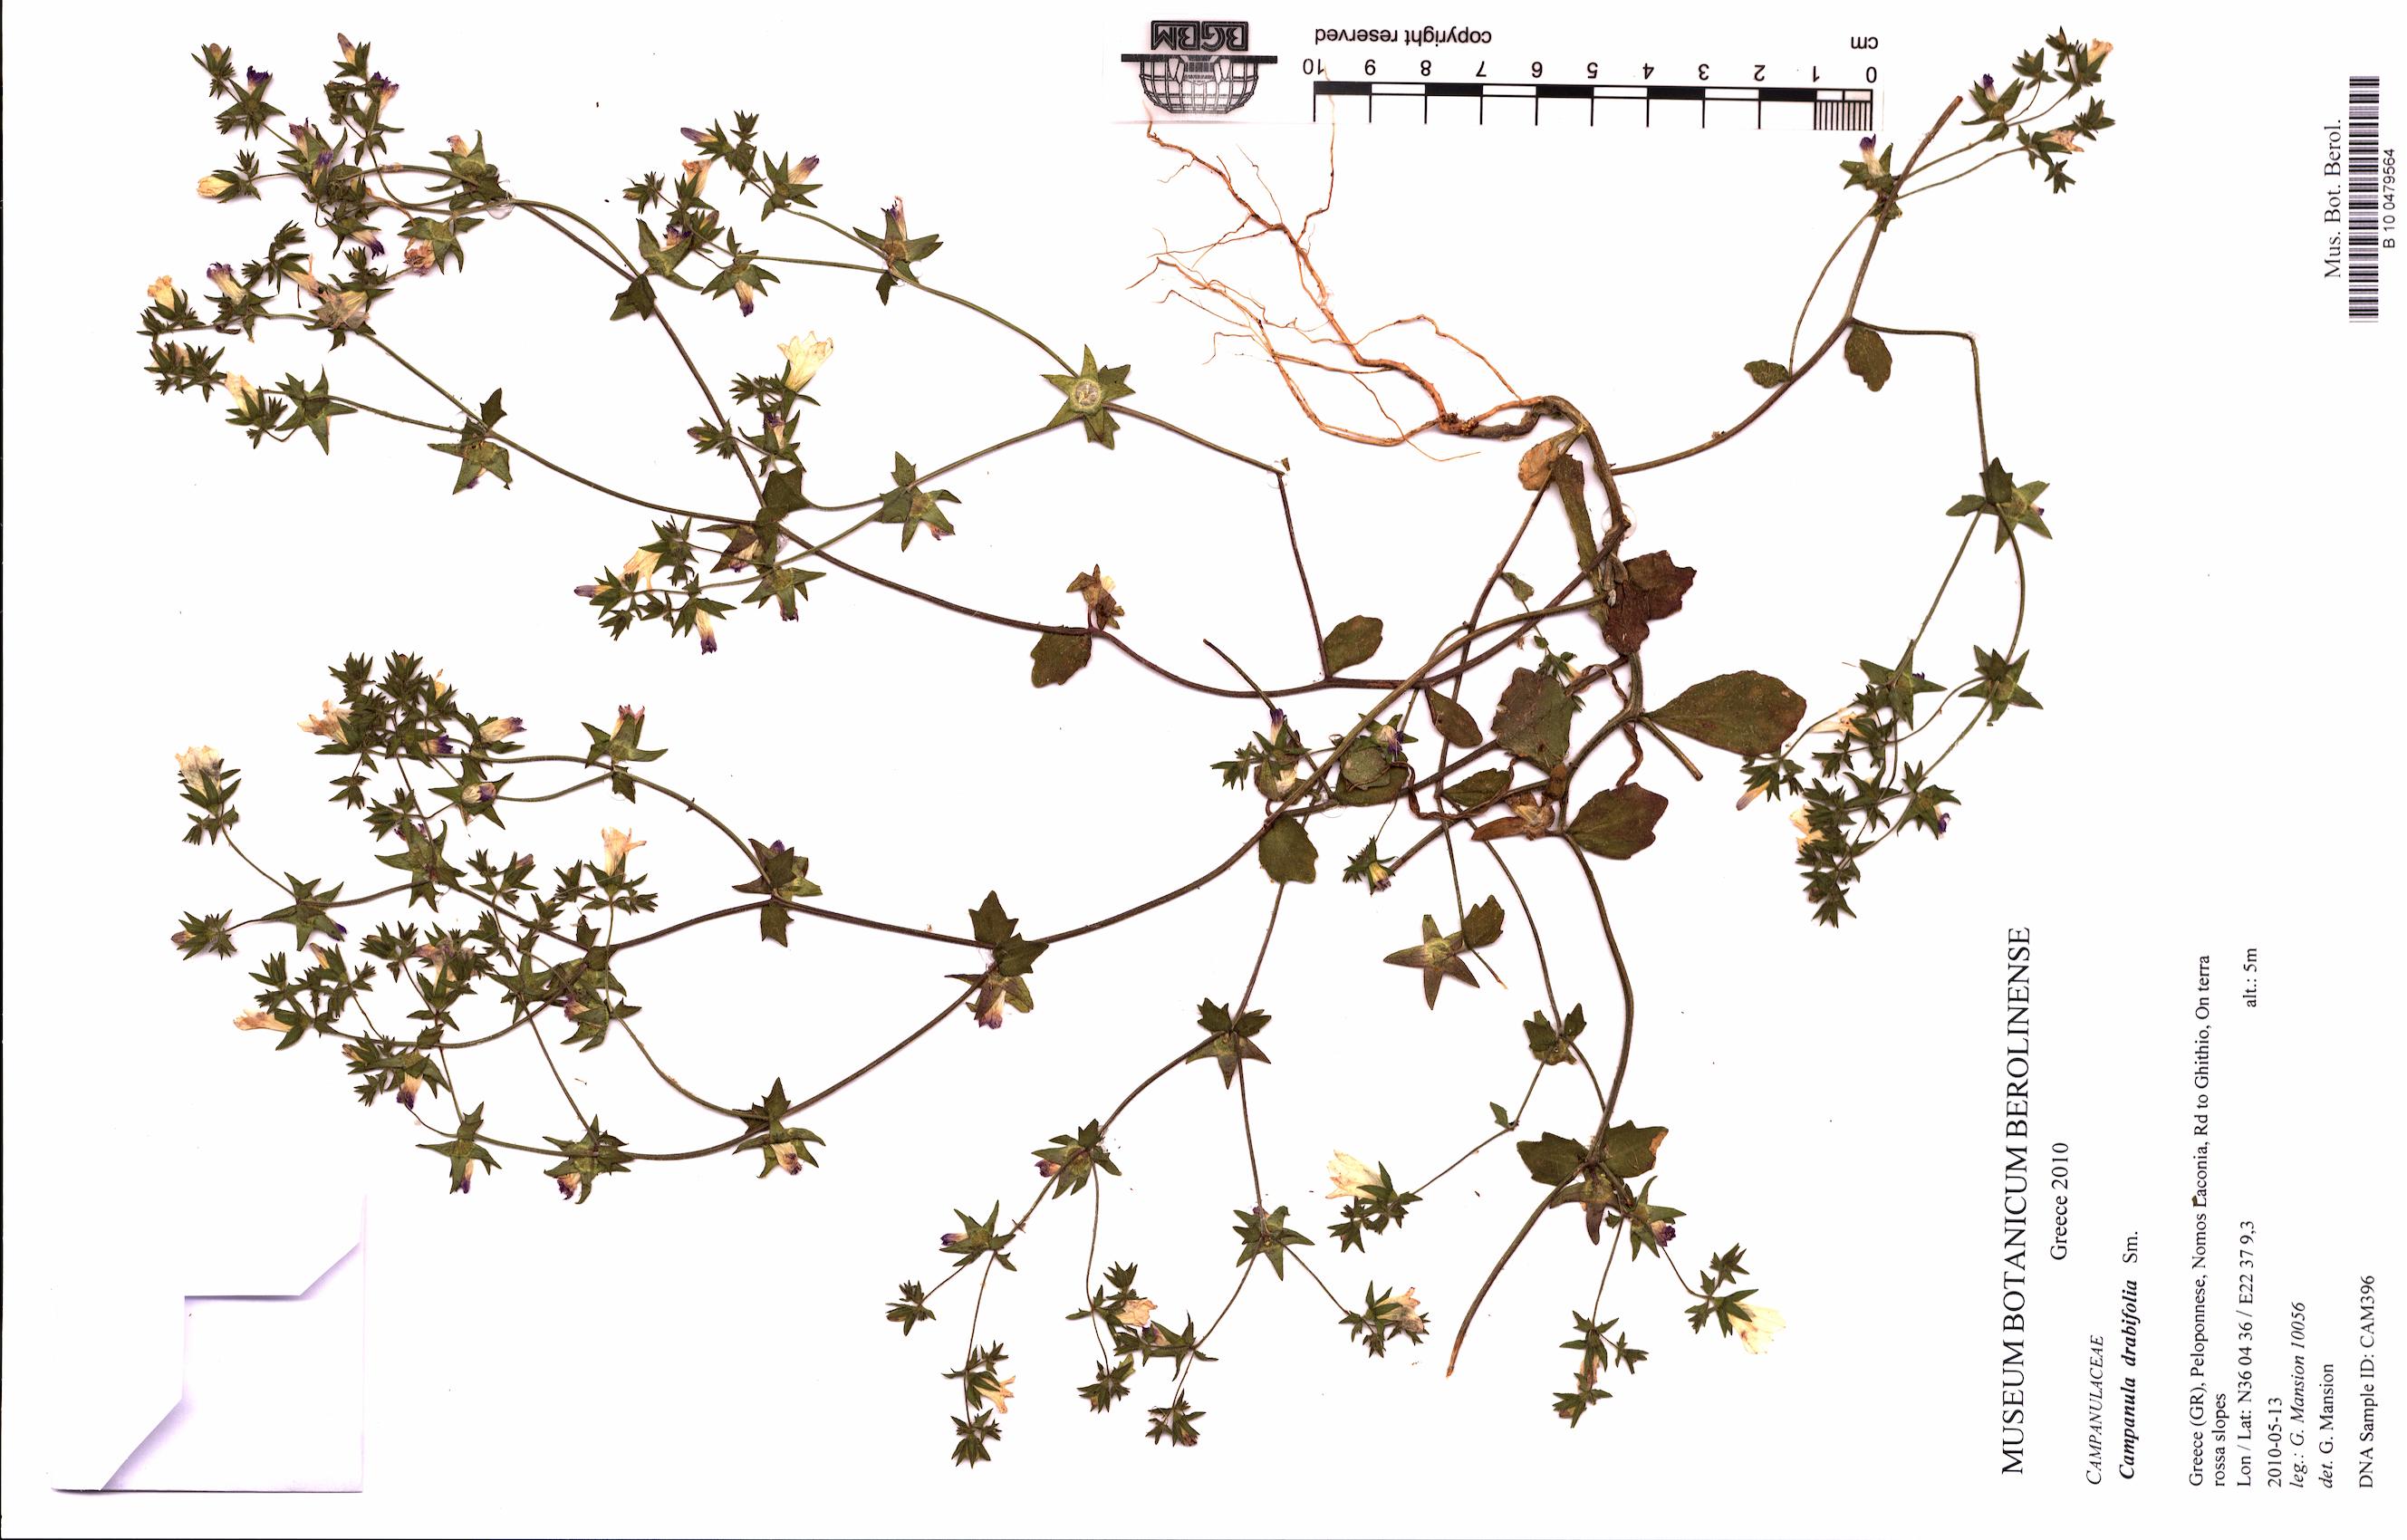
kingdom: Plantae
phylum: Tracheophyta
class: Magnoliopsida
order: Asterales
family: Campanulaceae
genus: Campanula
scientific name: Campanula drabifolia
